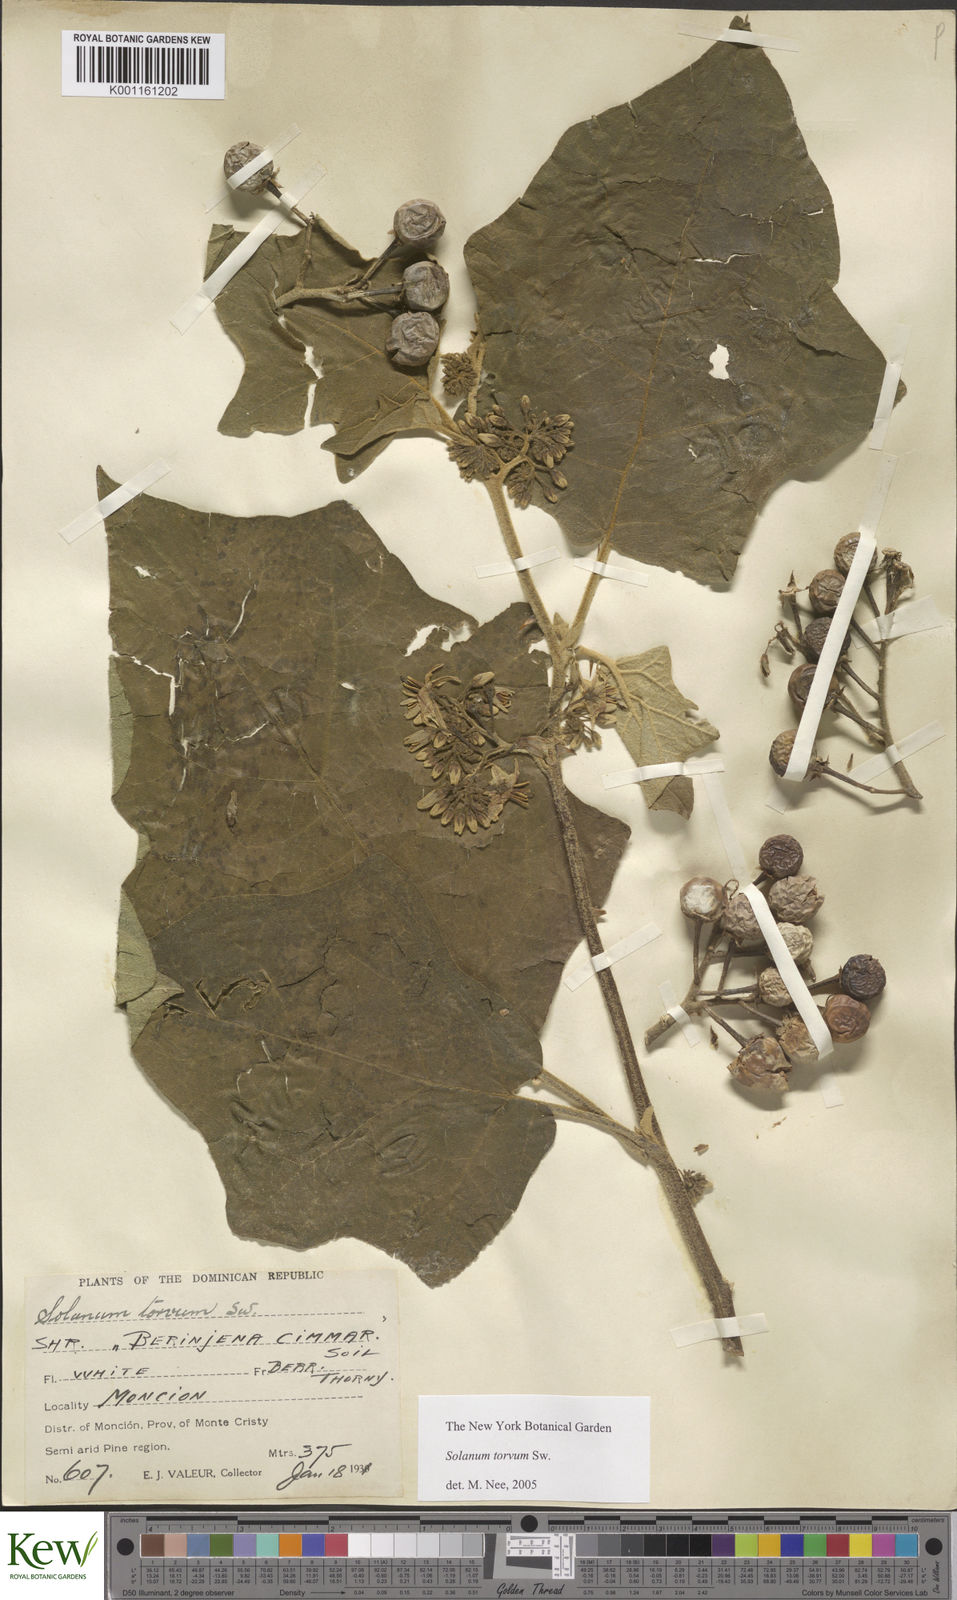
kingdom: Plantae
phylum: Tracheophyta
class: Magnoliopsida
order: Solanales
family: Solanaceae
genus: Solanum
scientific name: Solanum torvum
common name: Turkey berry
